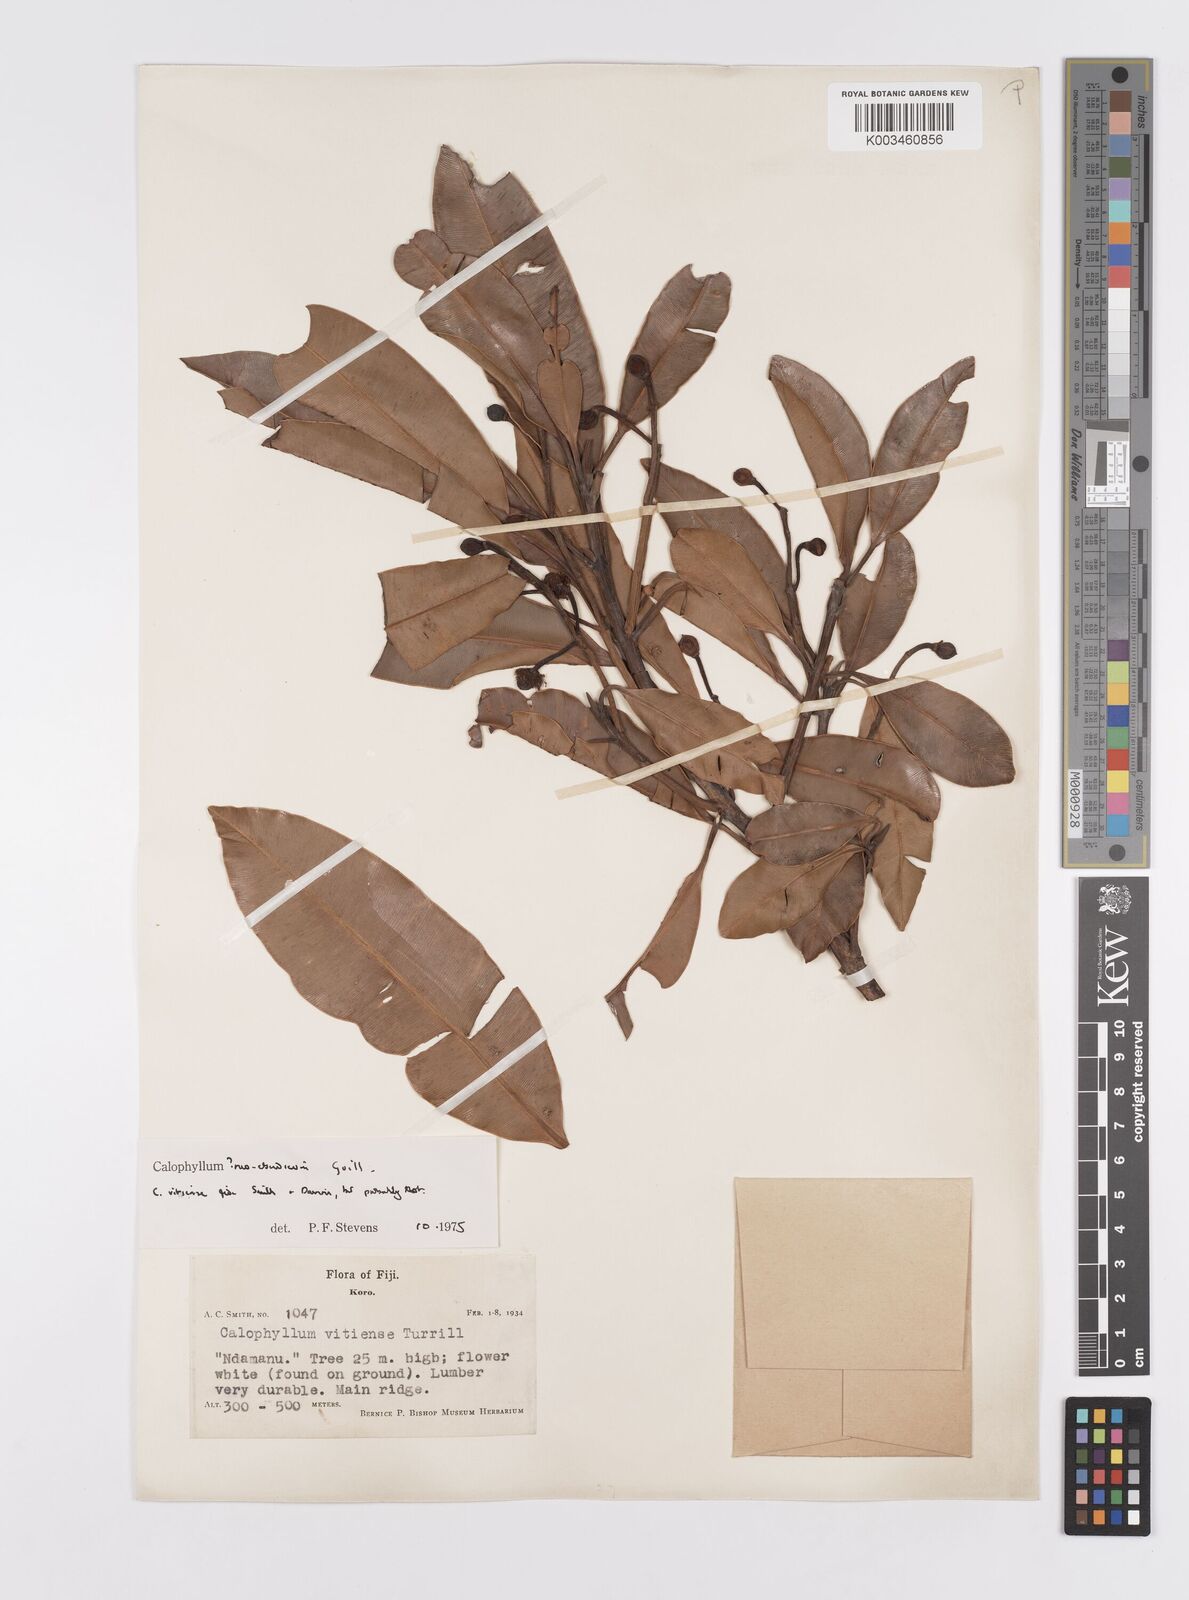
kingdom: Plantae
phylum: Tracheophyta
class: Magnoliopsida
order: Malpighiales
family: Calophyllaceae
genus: Calophyllum
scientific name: Calophyllum neoebudicum
